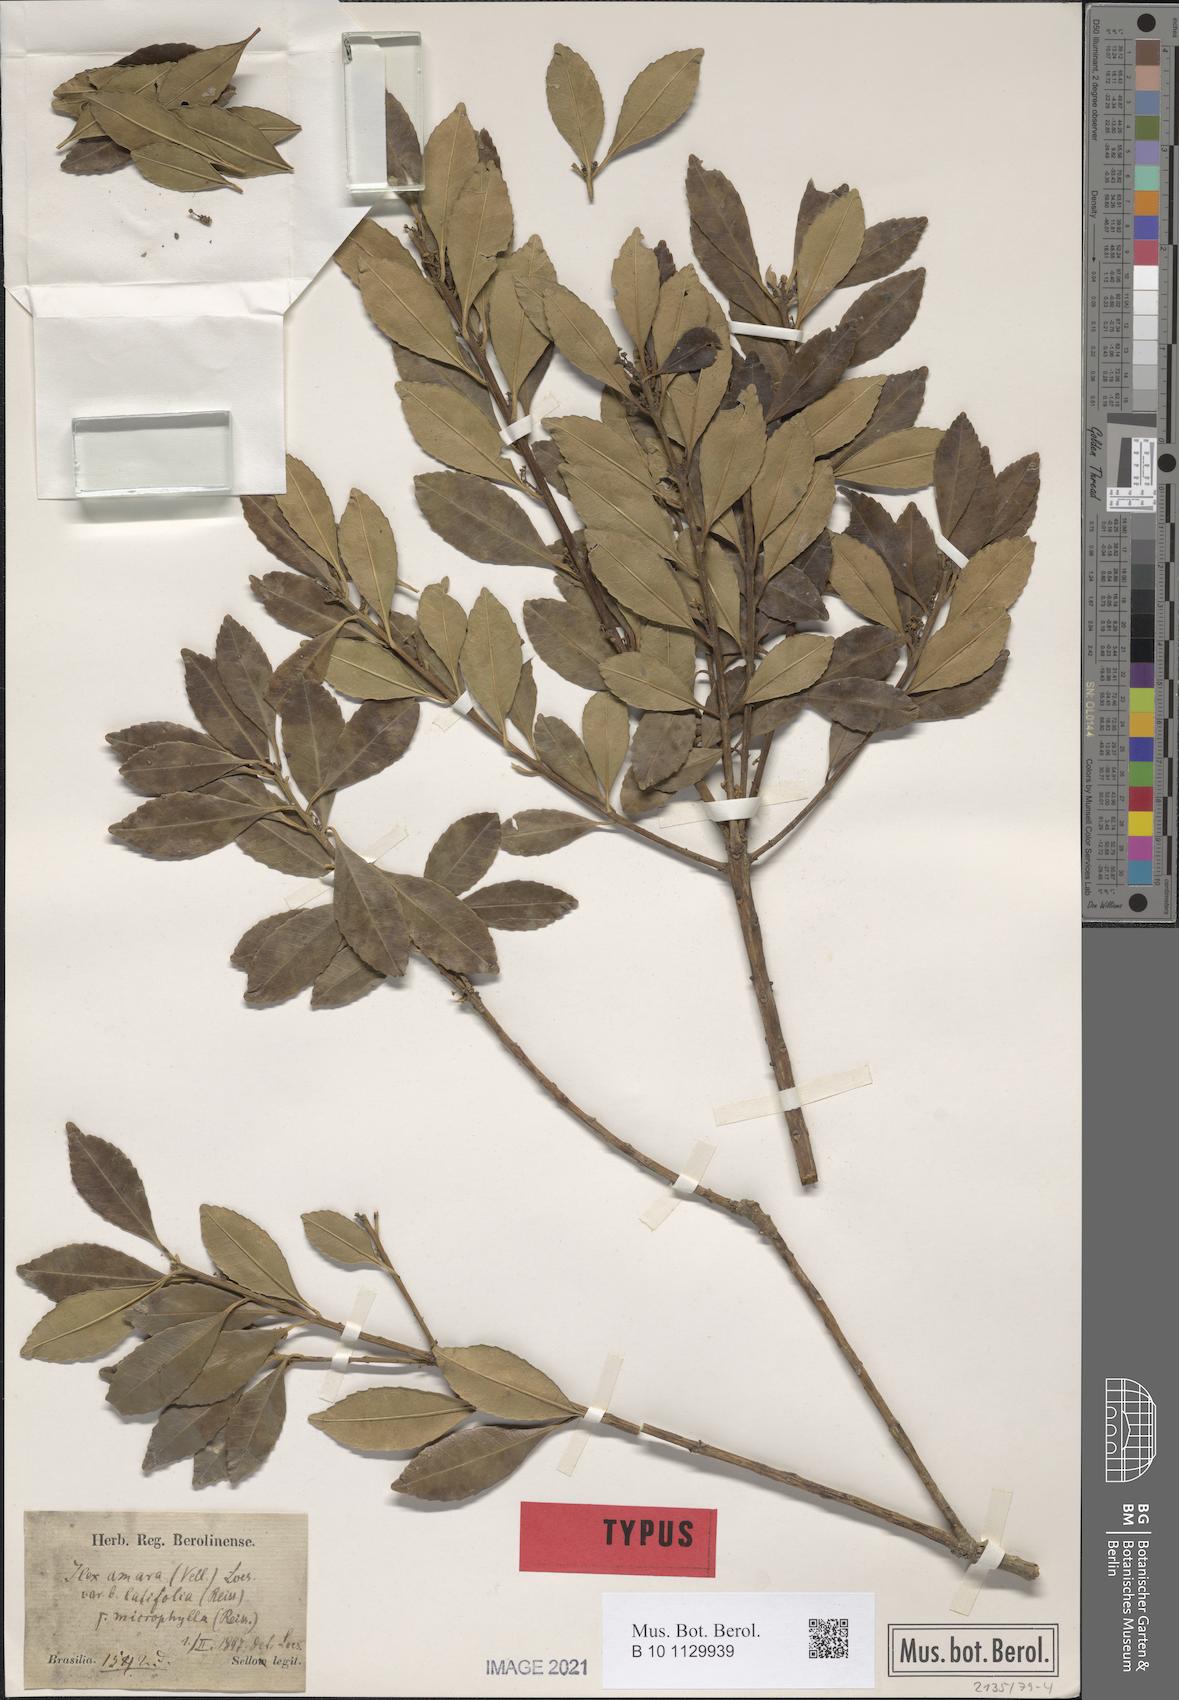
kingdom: Plantae
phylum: Tracheophyta
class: Magnoliopsida
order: Aquifoliales
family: Aquifoliaceae
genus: Ilex
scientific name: Ilex dumosa
